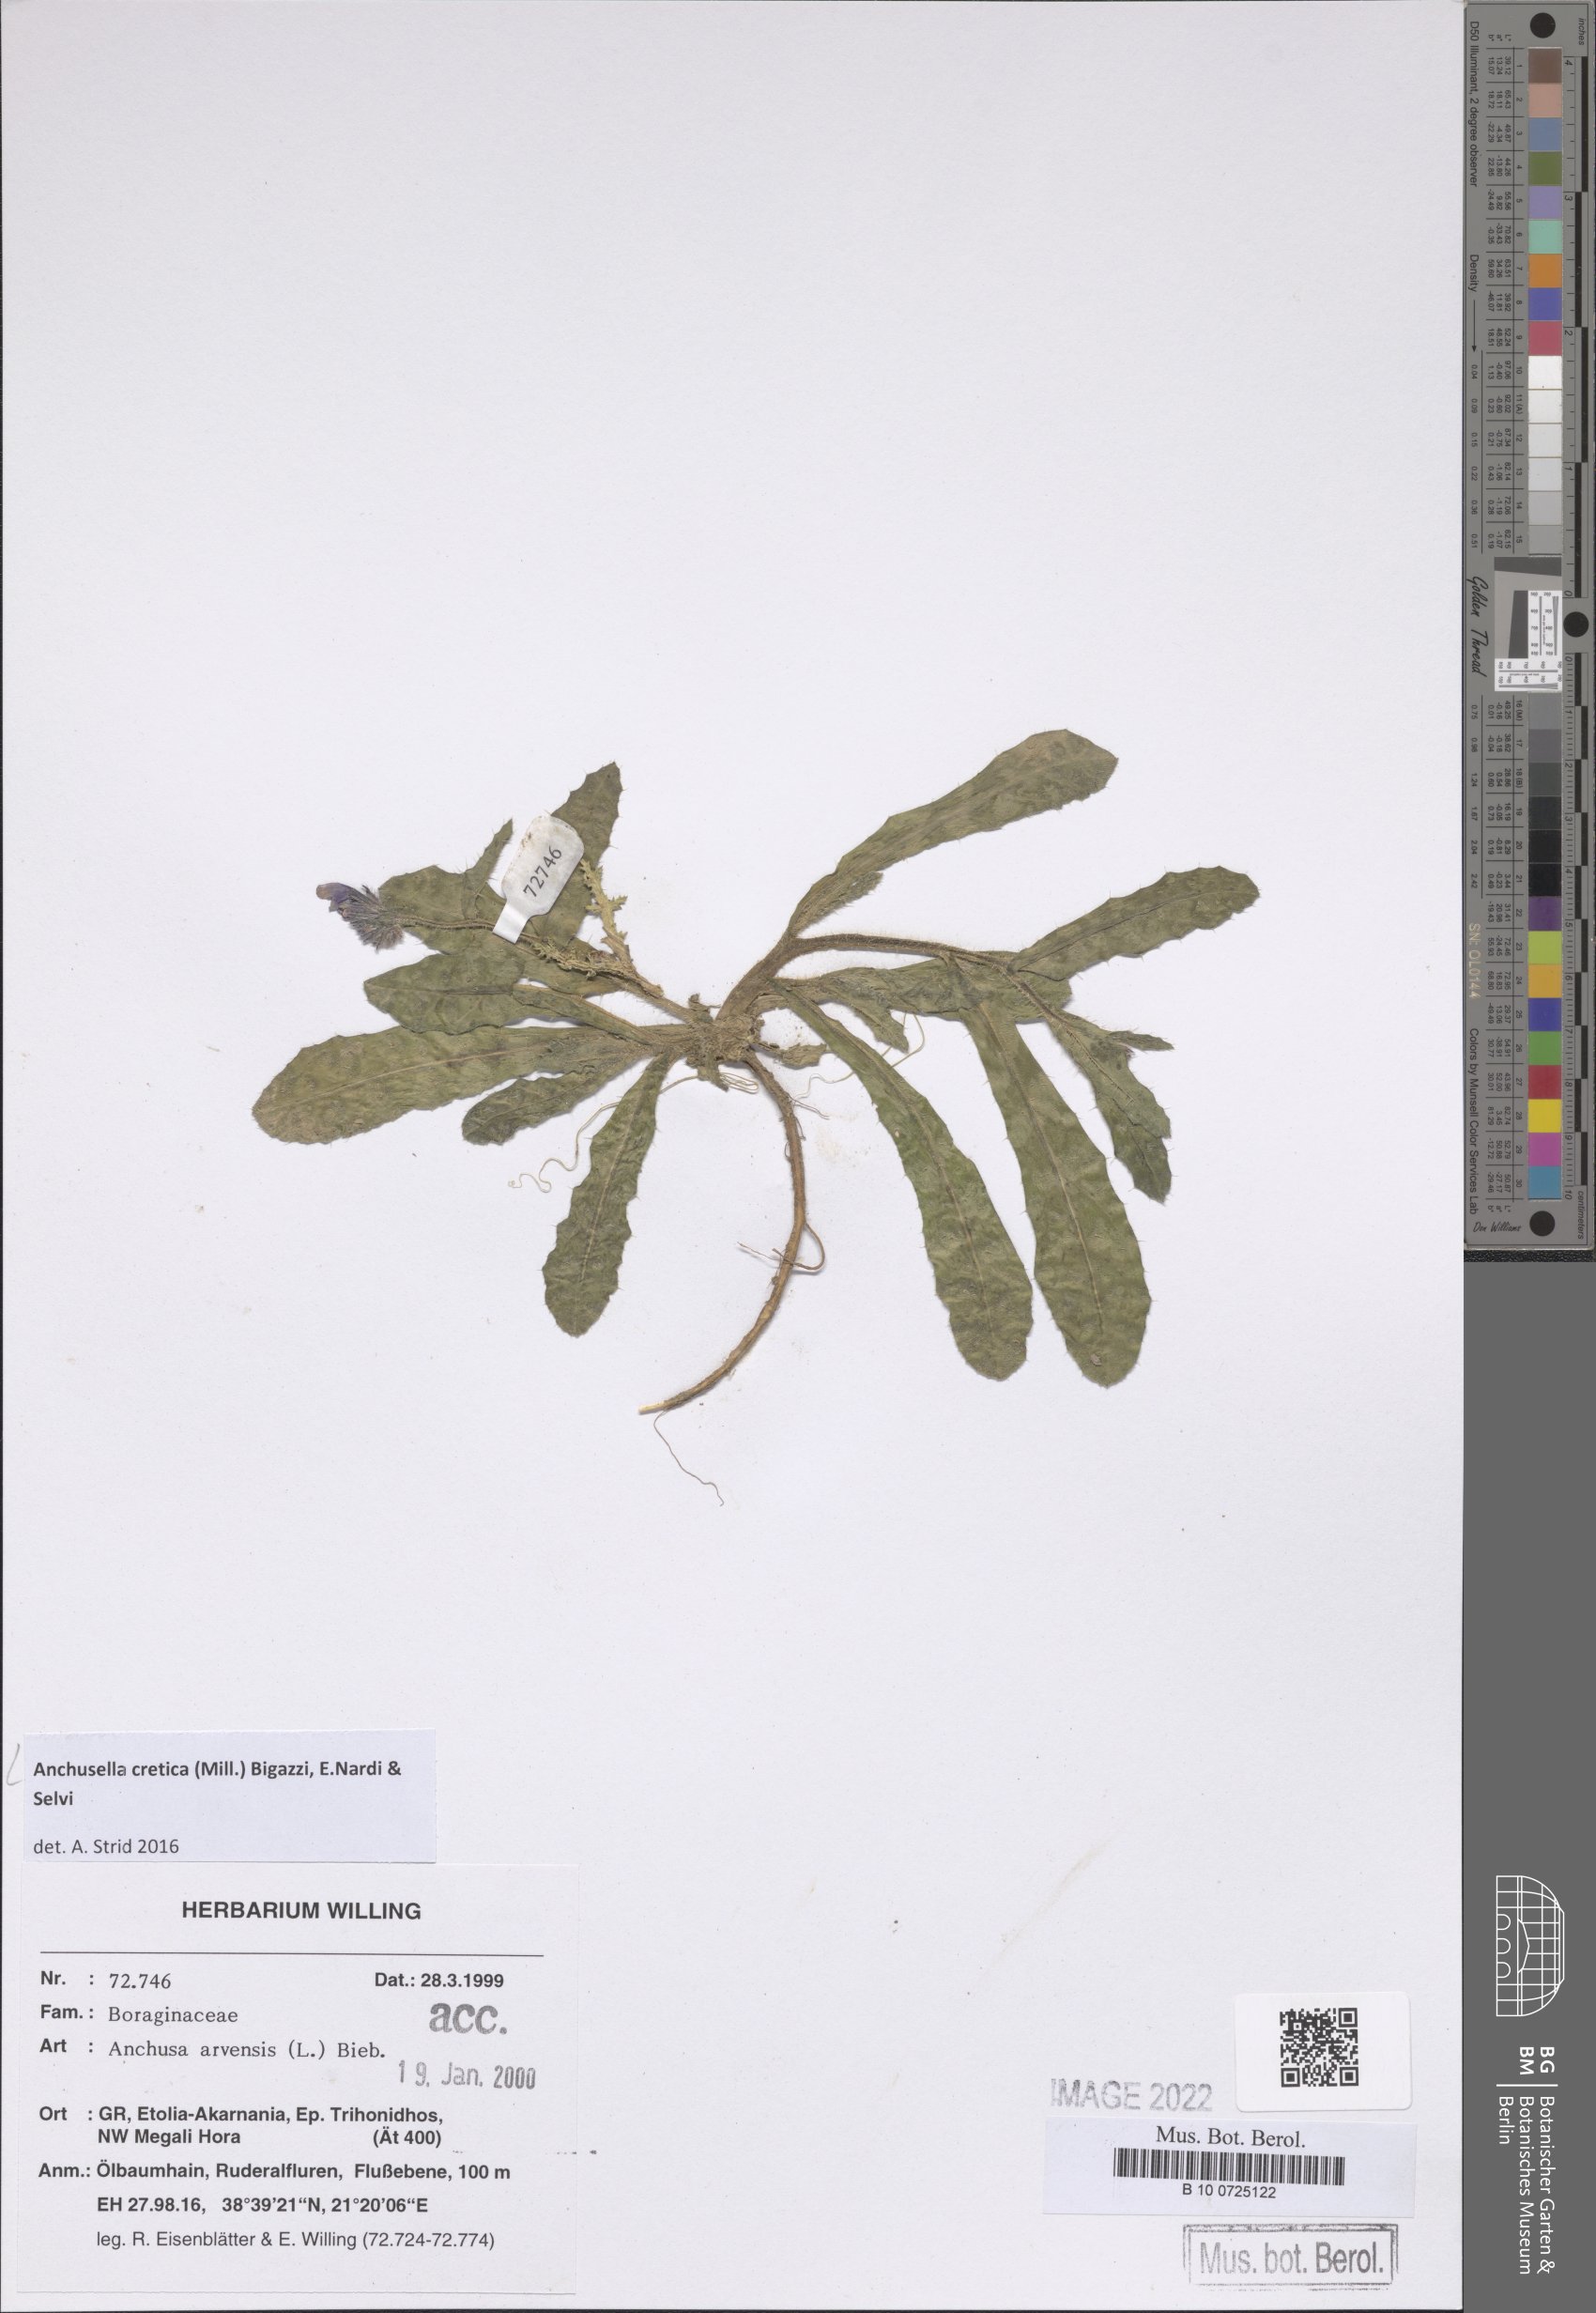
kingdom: Plantae
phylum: Tracheophyta
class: Magnoliopsida
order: Boraginales
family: Boraginaceae
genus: Anchusella
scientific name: Anchusella cretica
